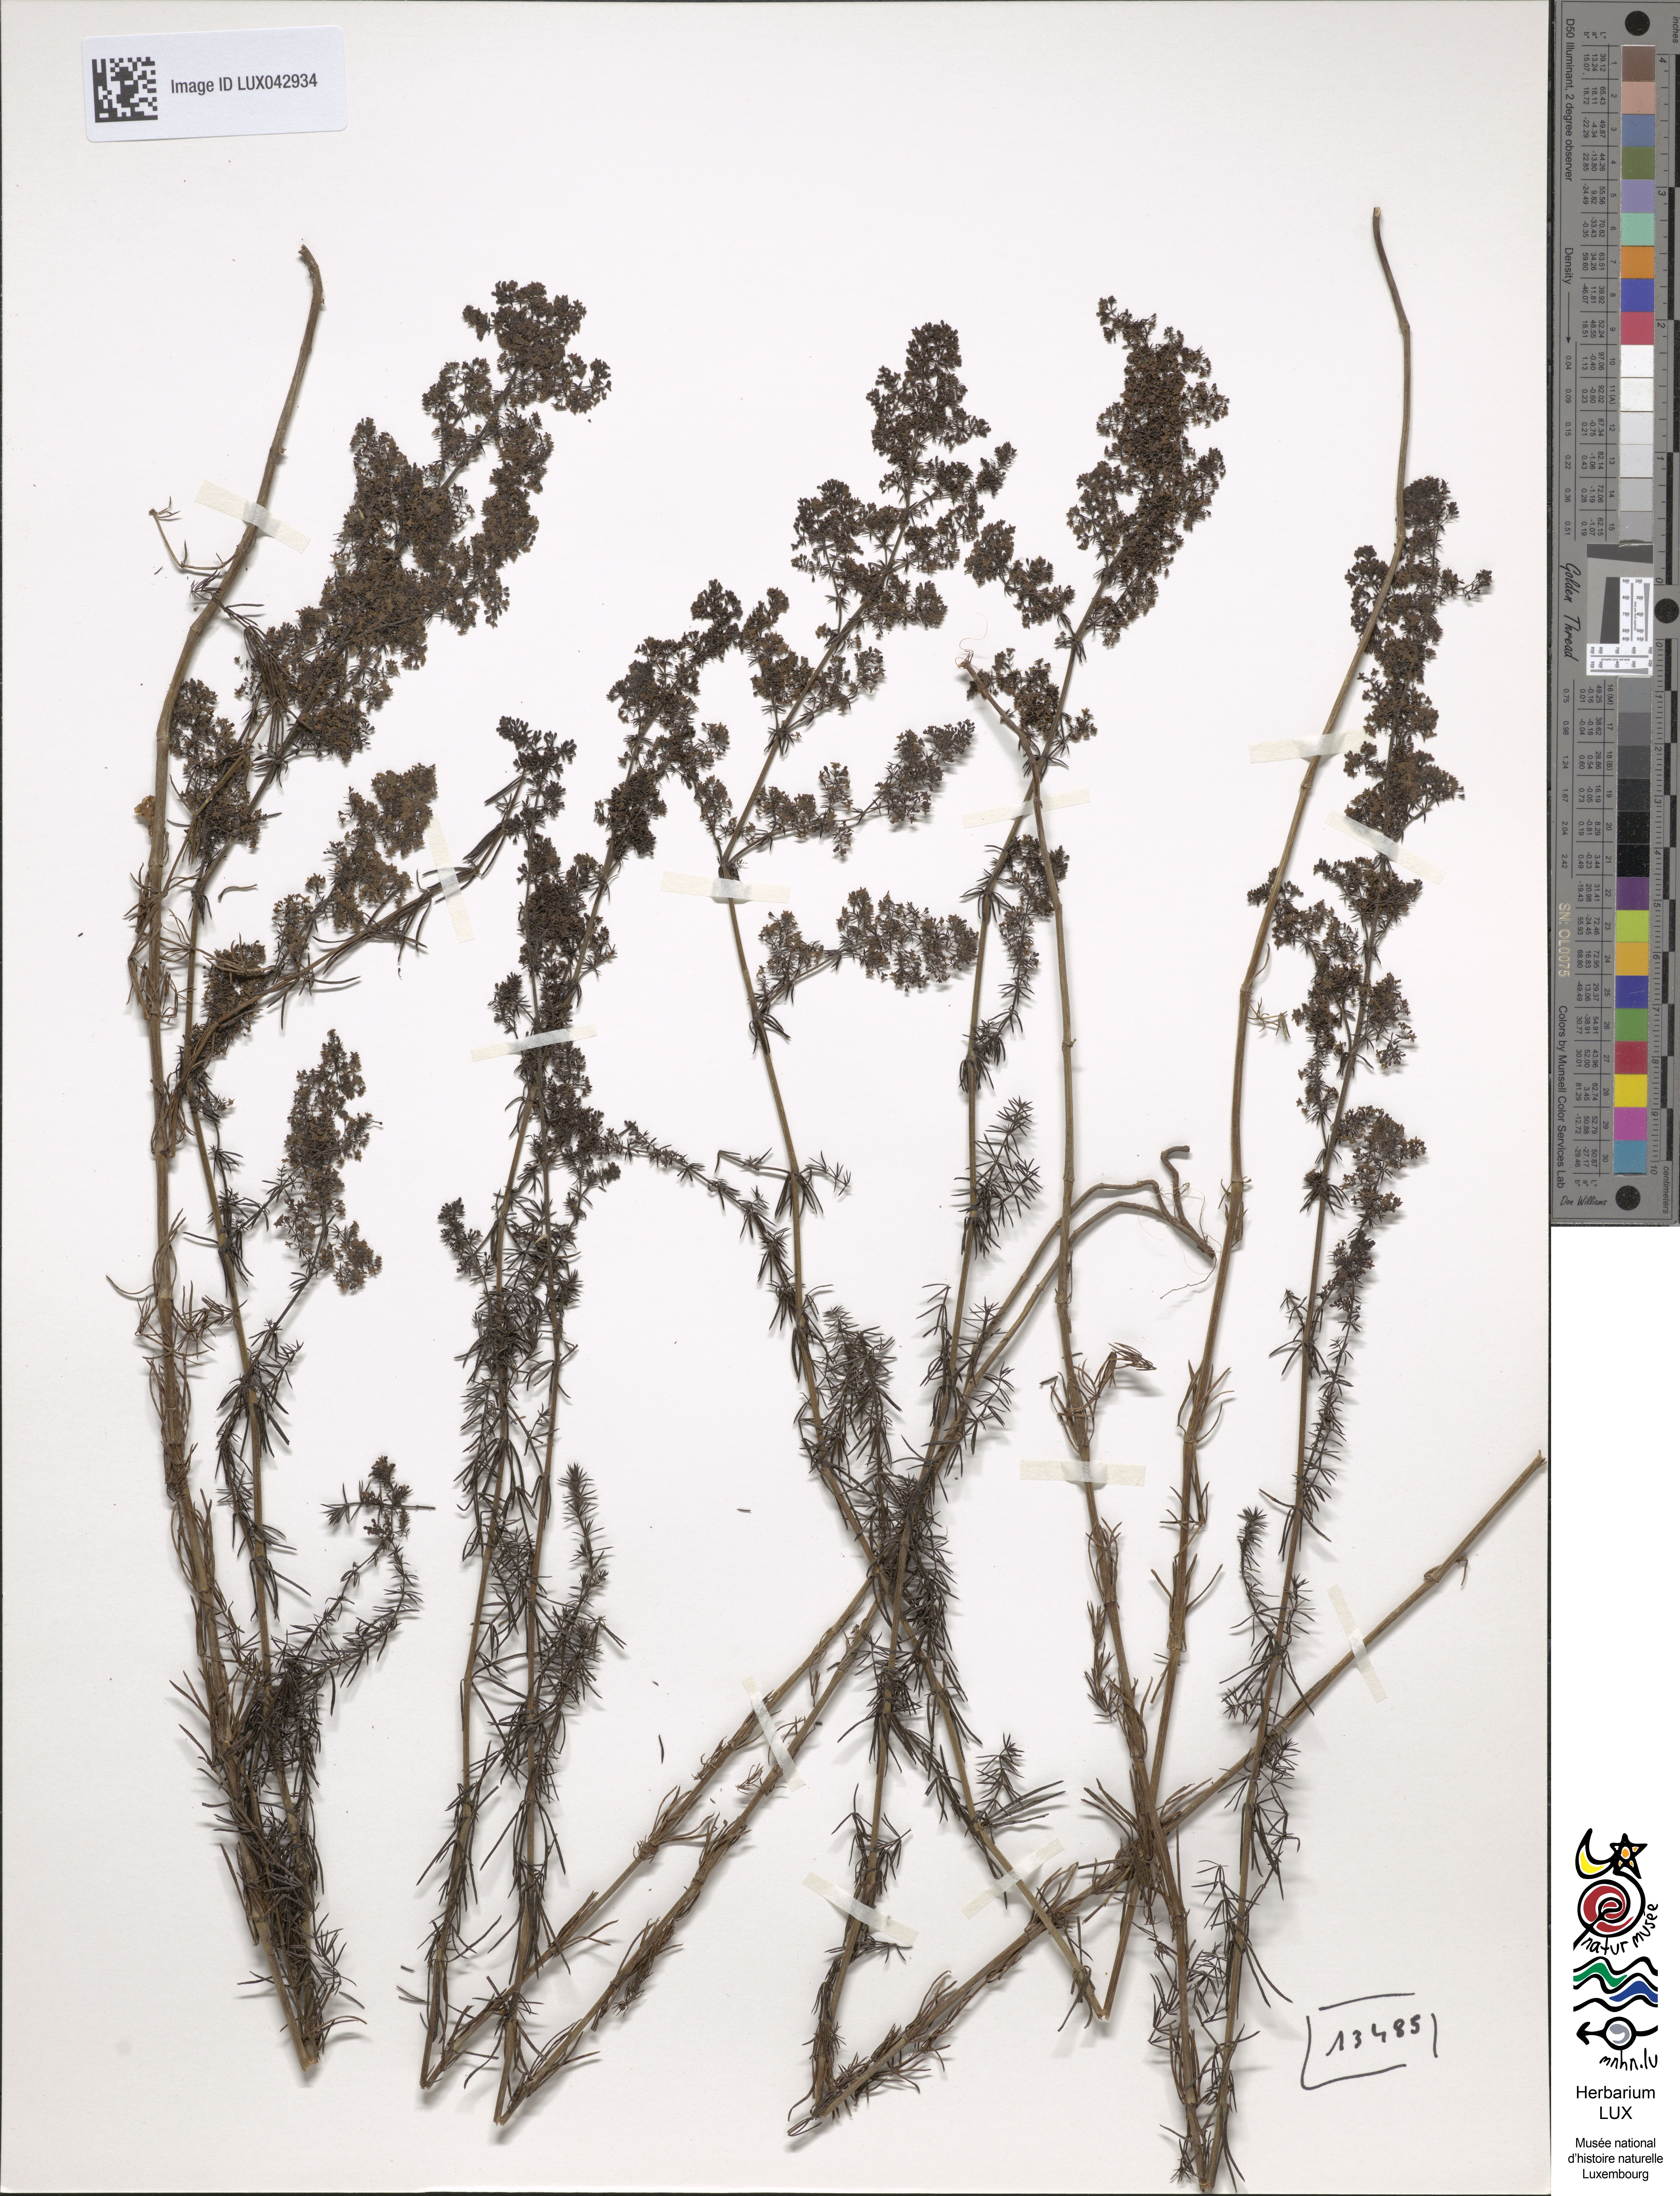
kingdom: Plantae
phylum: Tracheophyta
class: Magnoliopsida
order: Gentianales
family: Rubiaceae
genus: Galium
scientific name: Galium verum
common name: Lady's bedstraw
